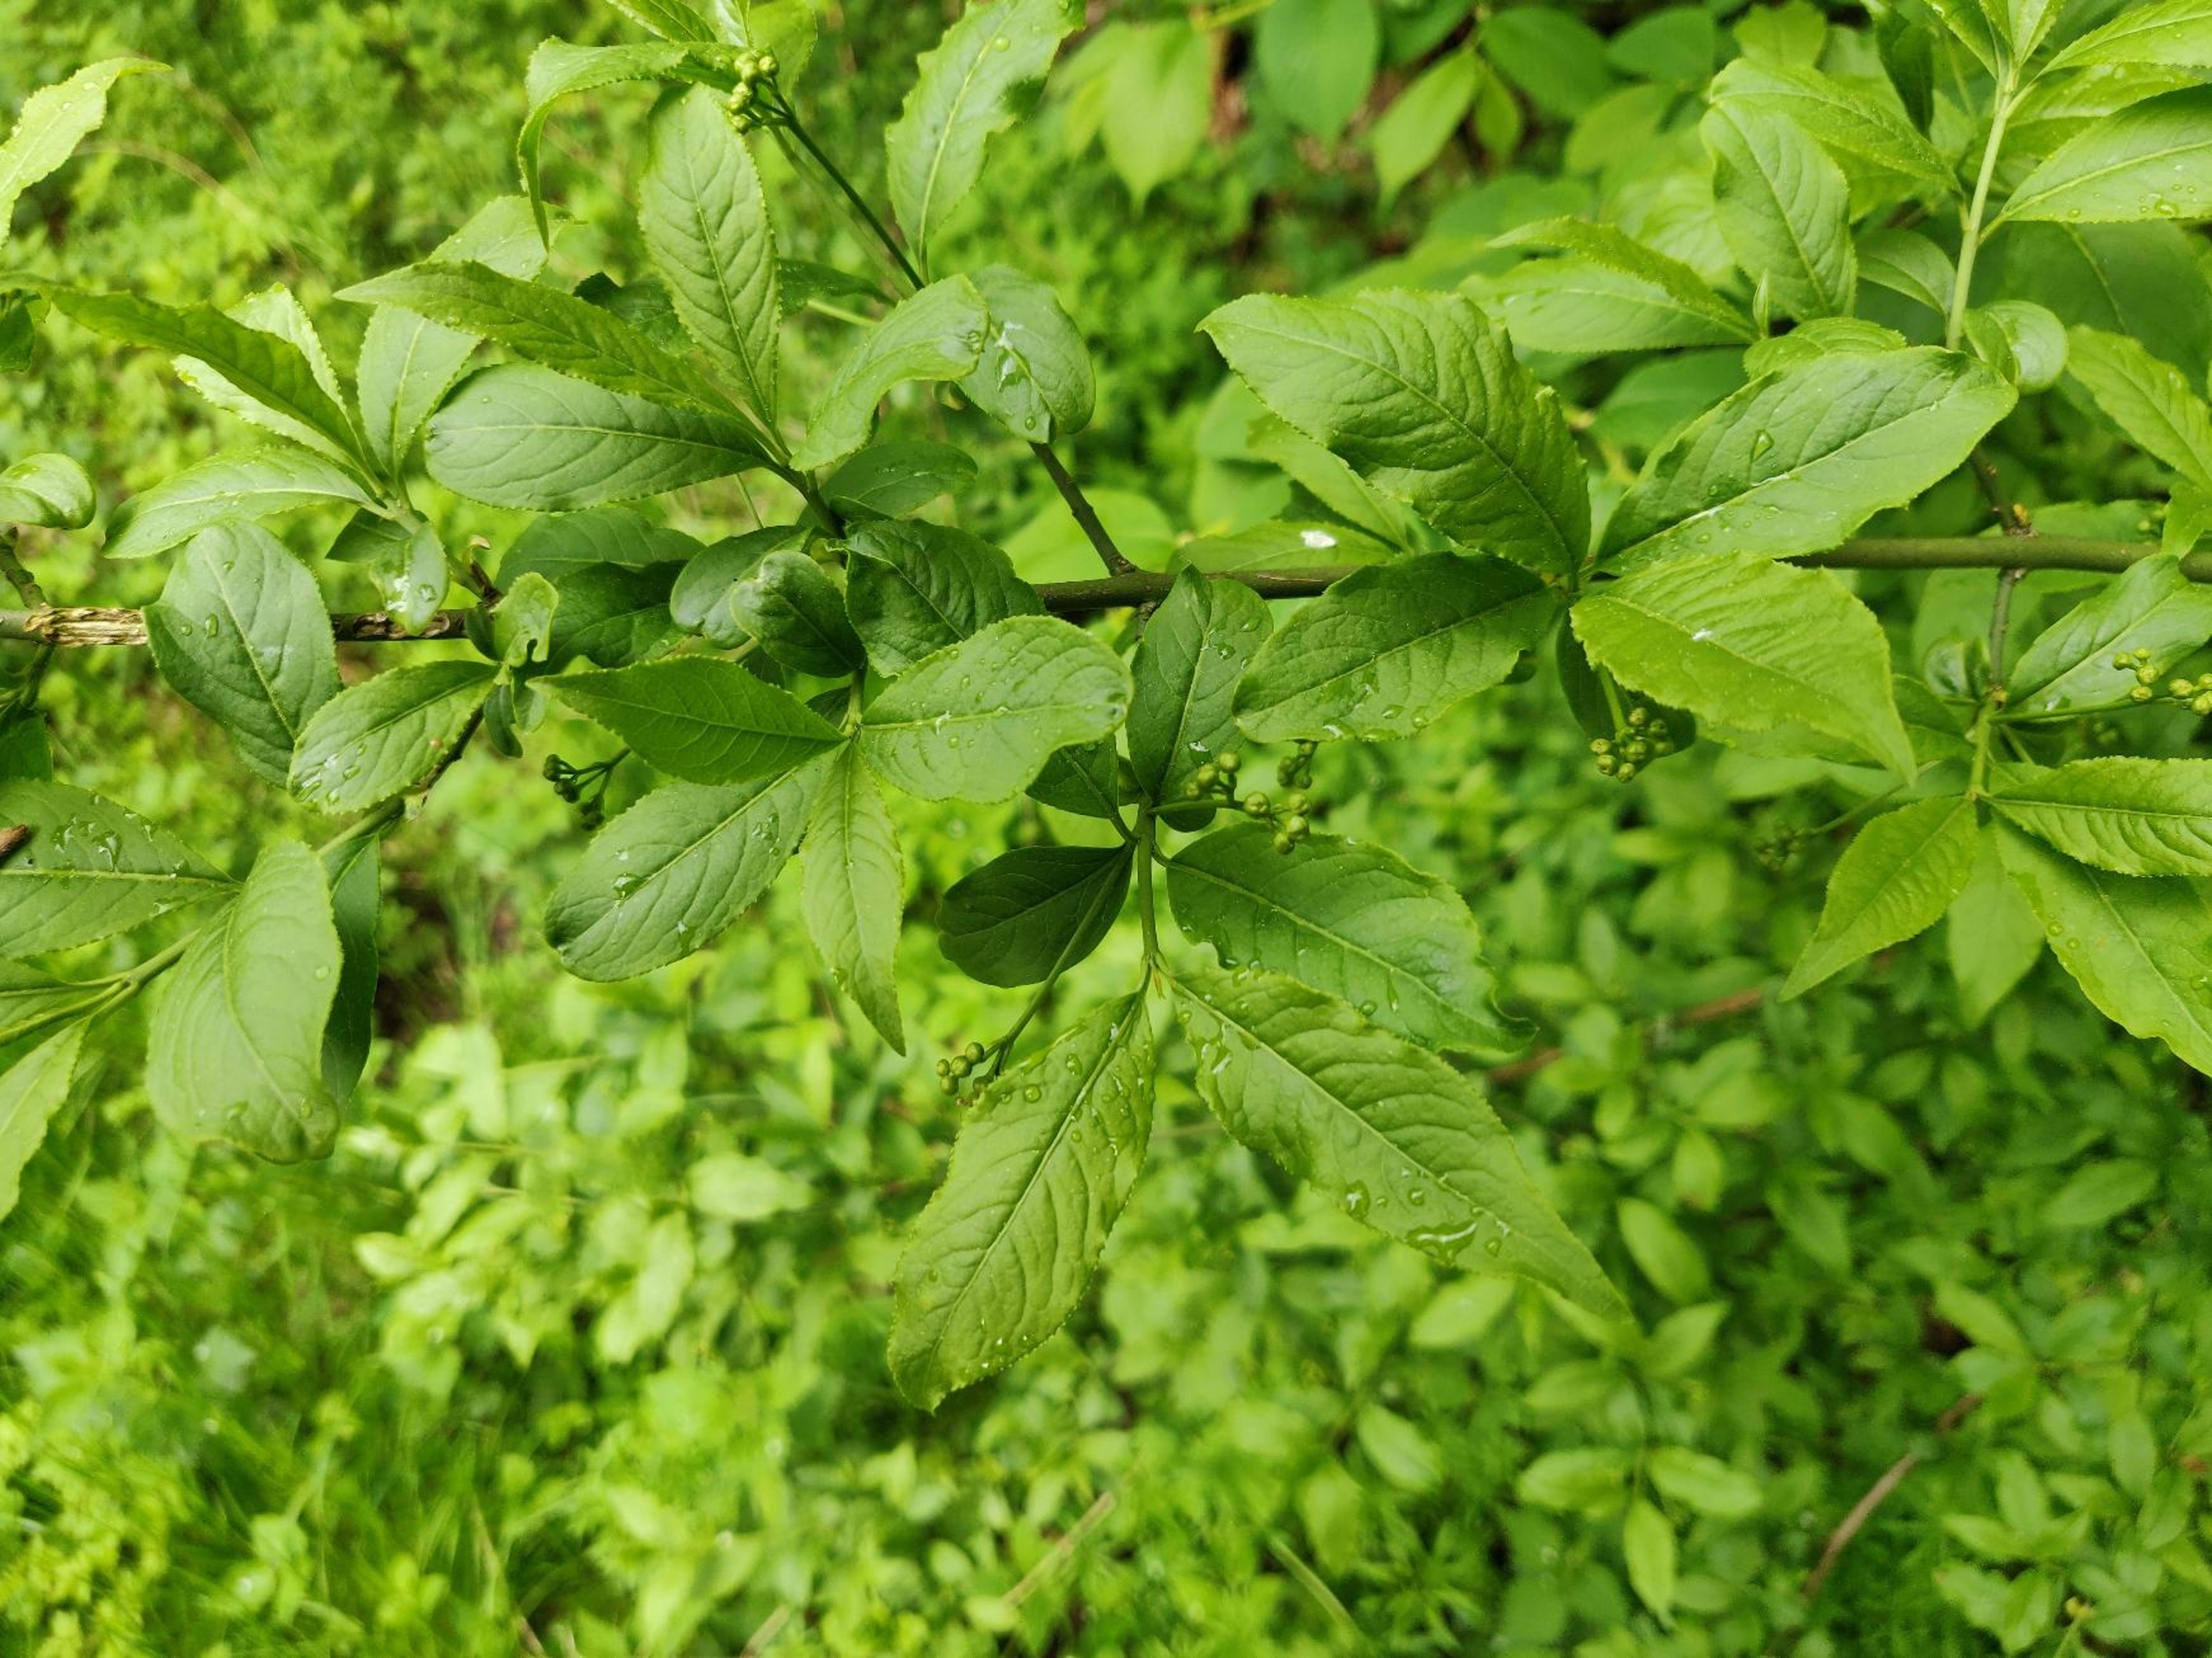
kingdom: Plantae
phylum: Tracheophyta
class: Magnoliopsida
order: Celastrales
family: Celastraceae
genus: Euonymus
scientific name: Euonymus europaeus
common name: Benved
